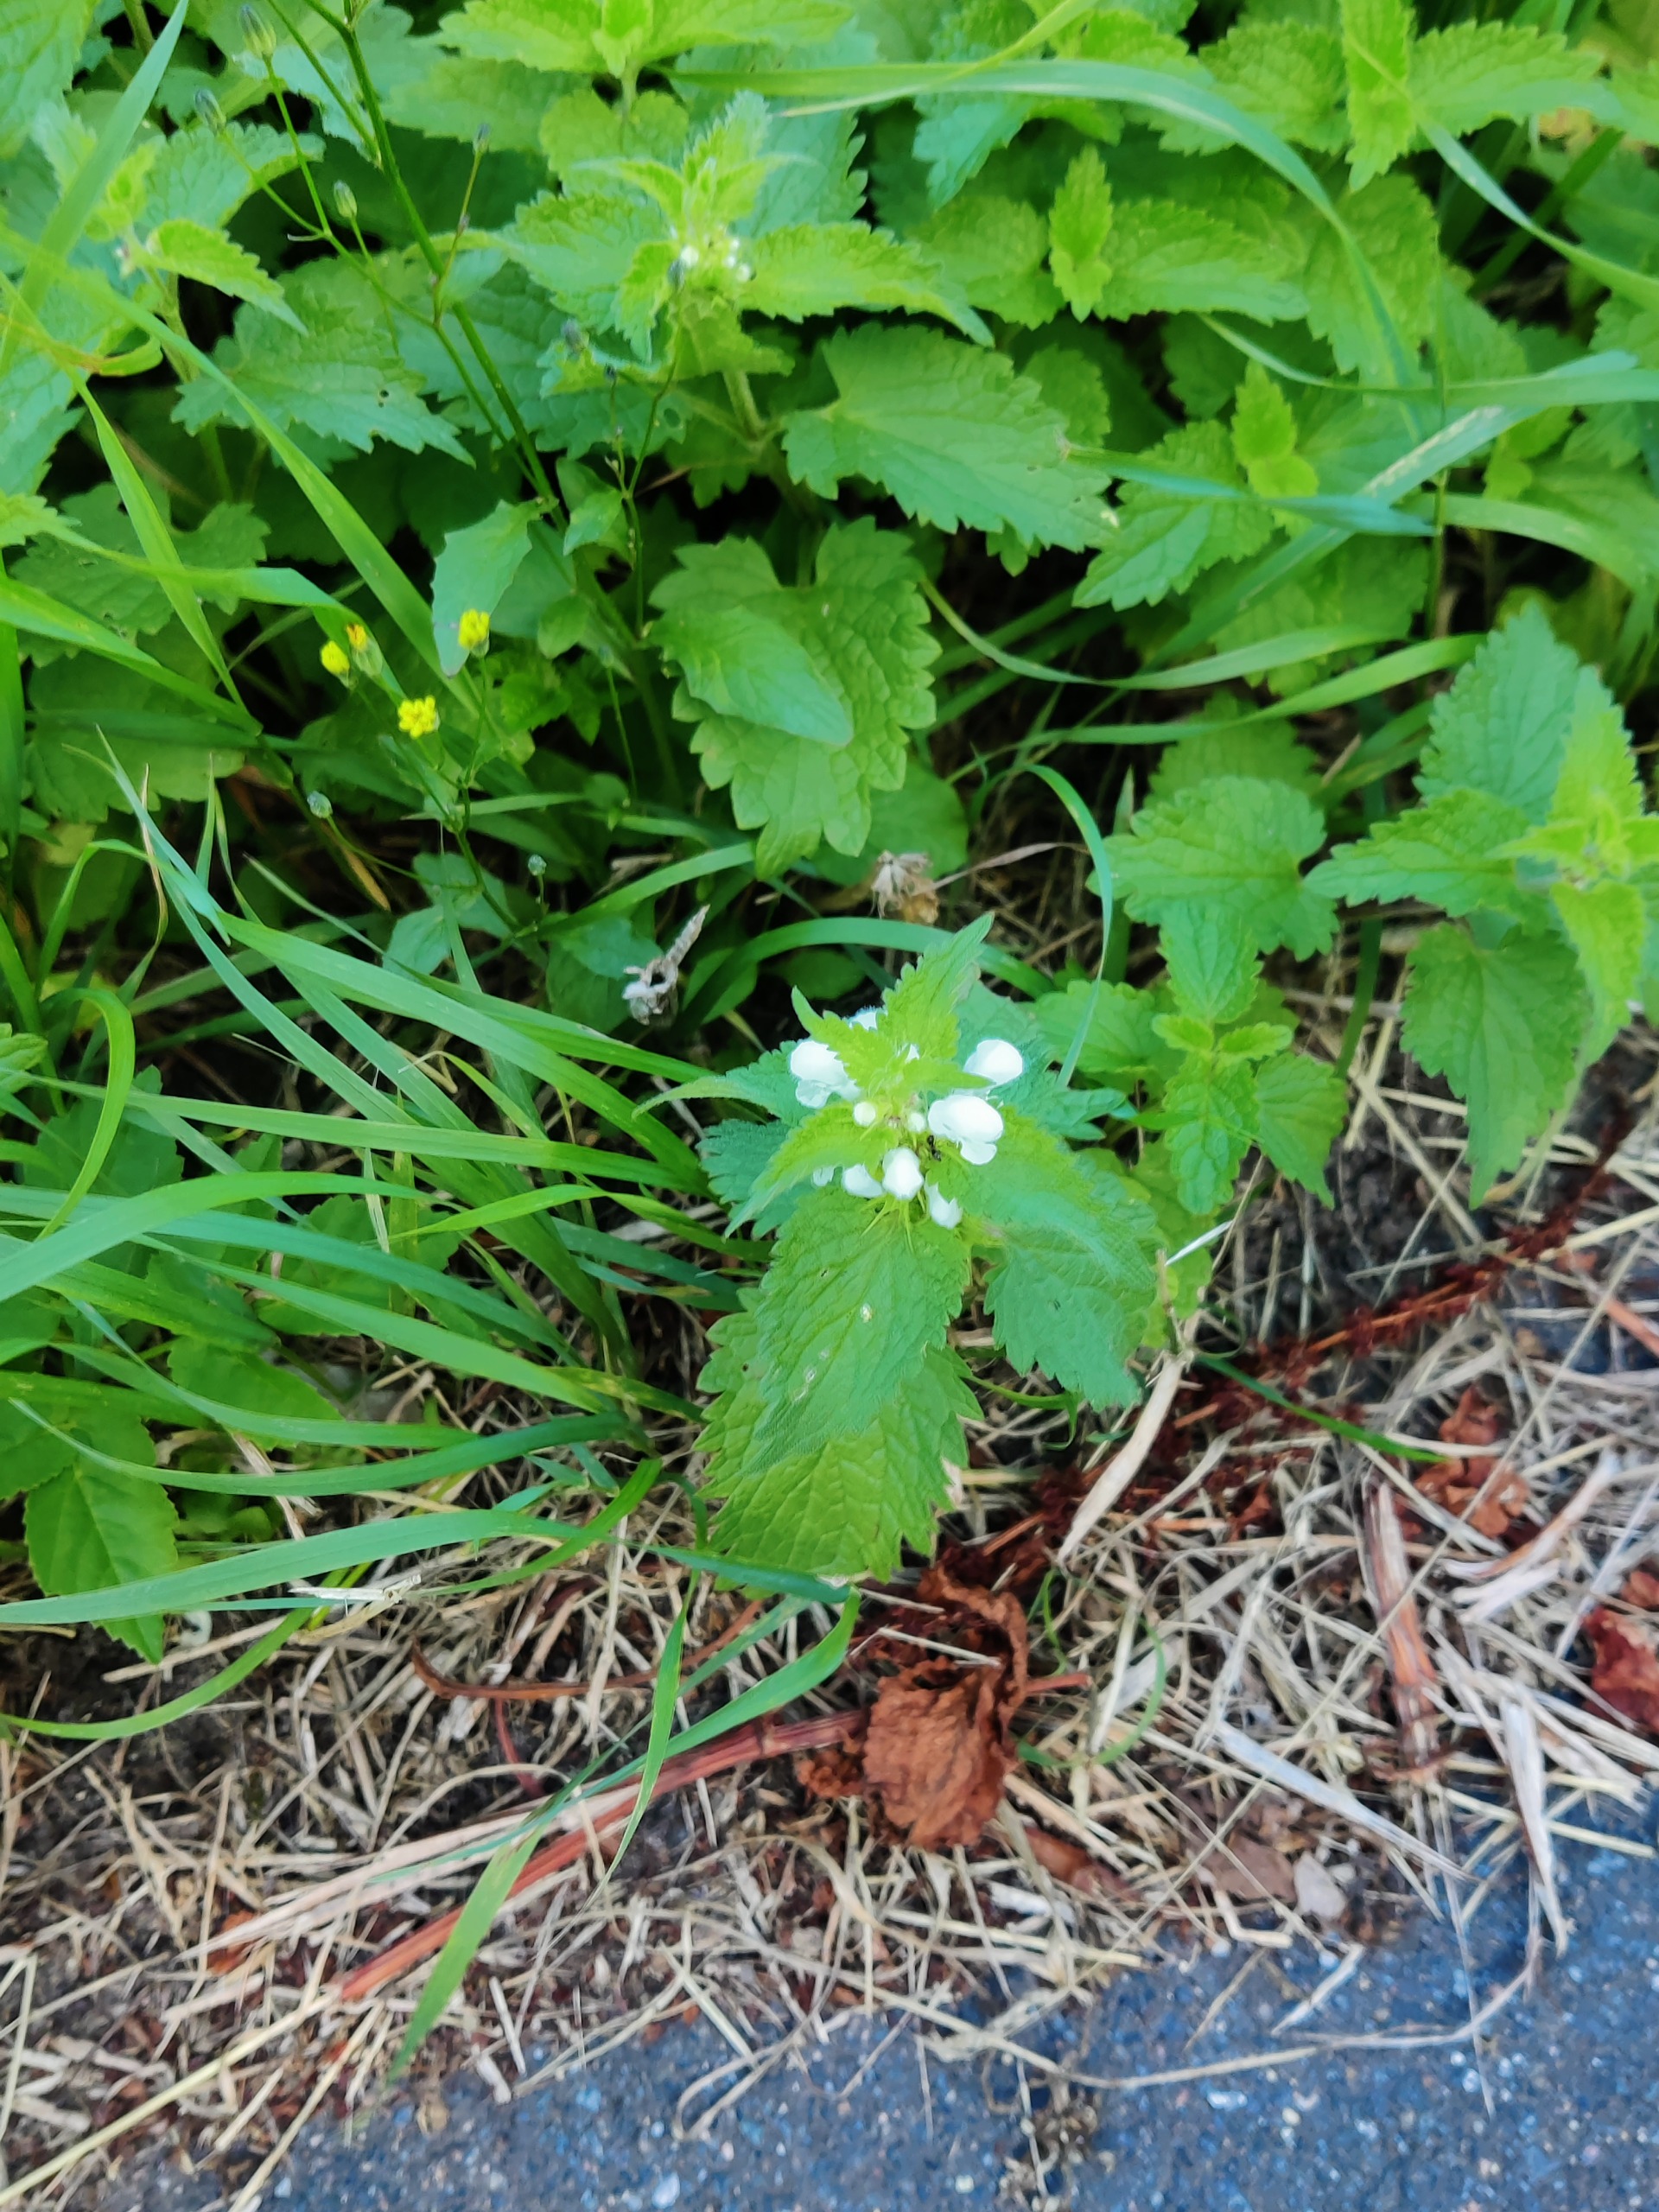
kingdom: Plantae
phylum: Tracheophyta
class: Magnoliopsida
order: Lamiales
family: Lamiaceae
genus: Lamium
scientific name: Lamium album
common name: Døvnælde
